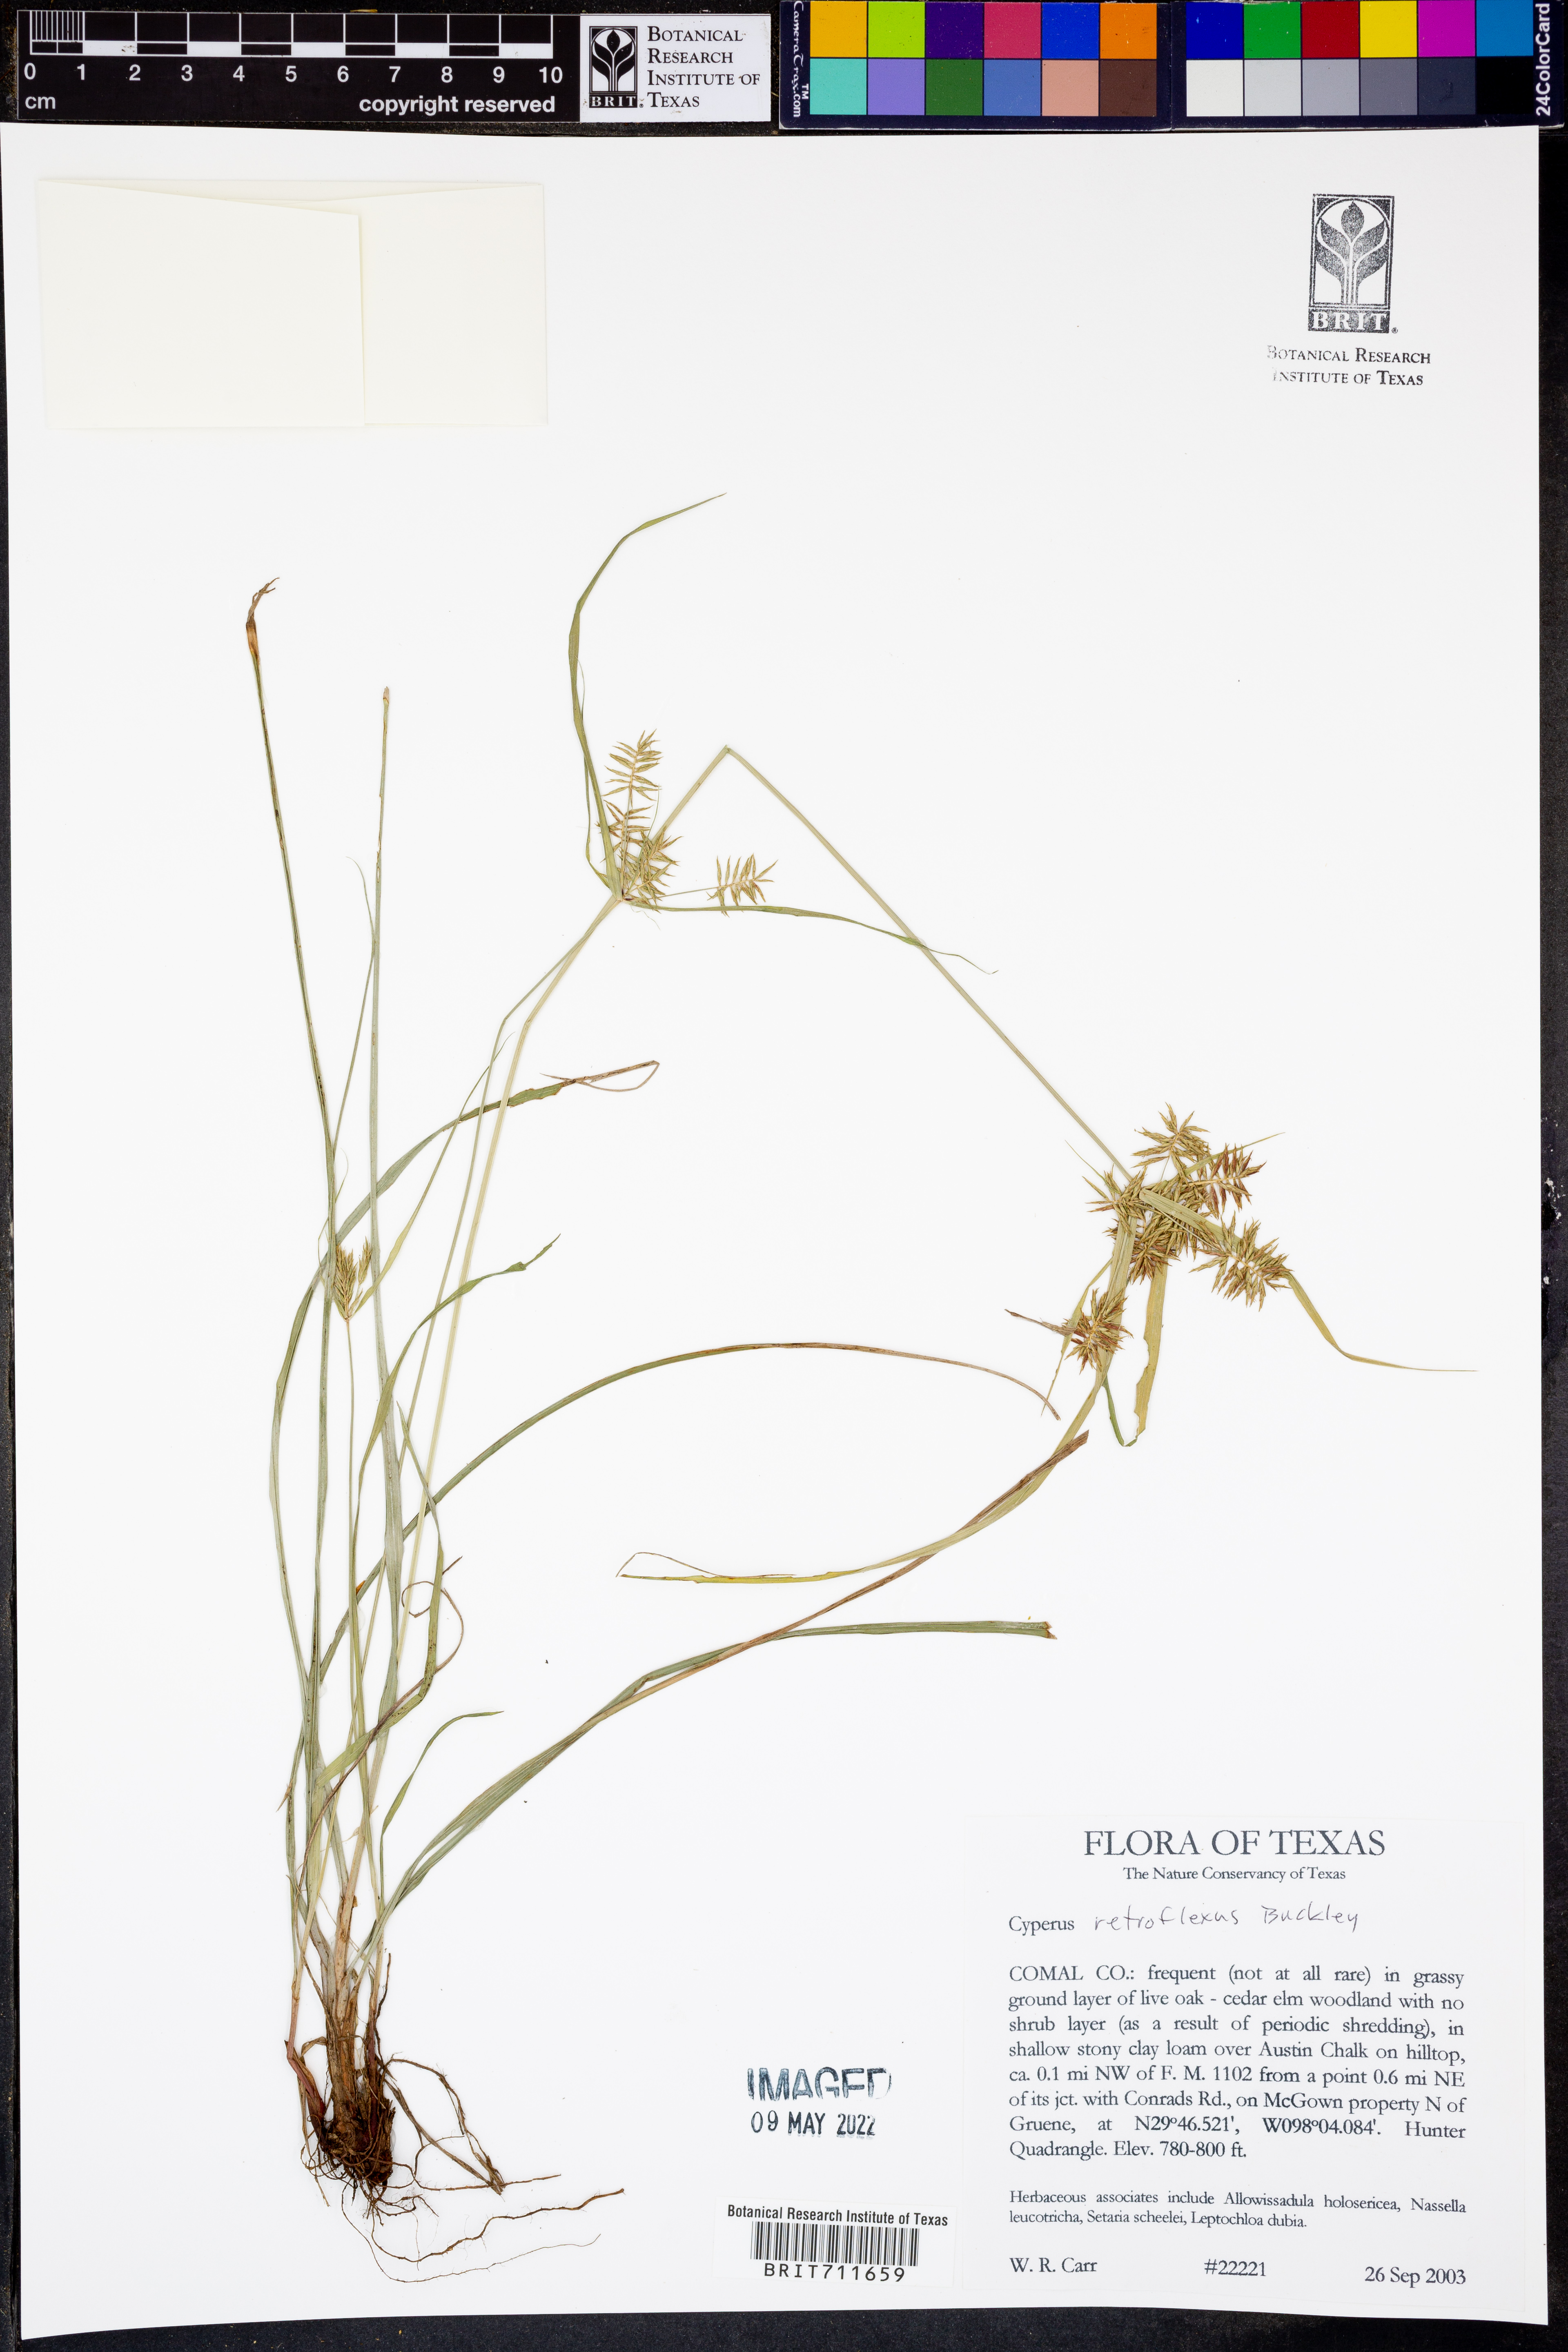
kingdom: Plantae
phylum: Tracheophyta
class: Liliopsida
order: Poales
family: Cyperaceae
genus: Cyperus
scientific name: Cyperus retroflexus
